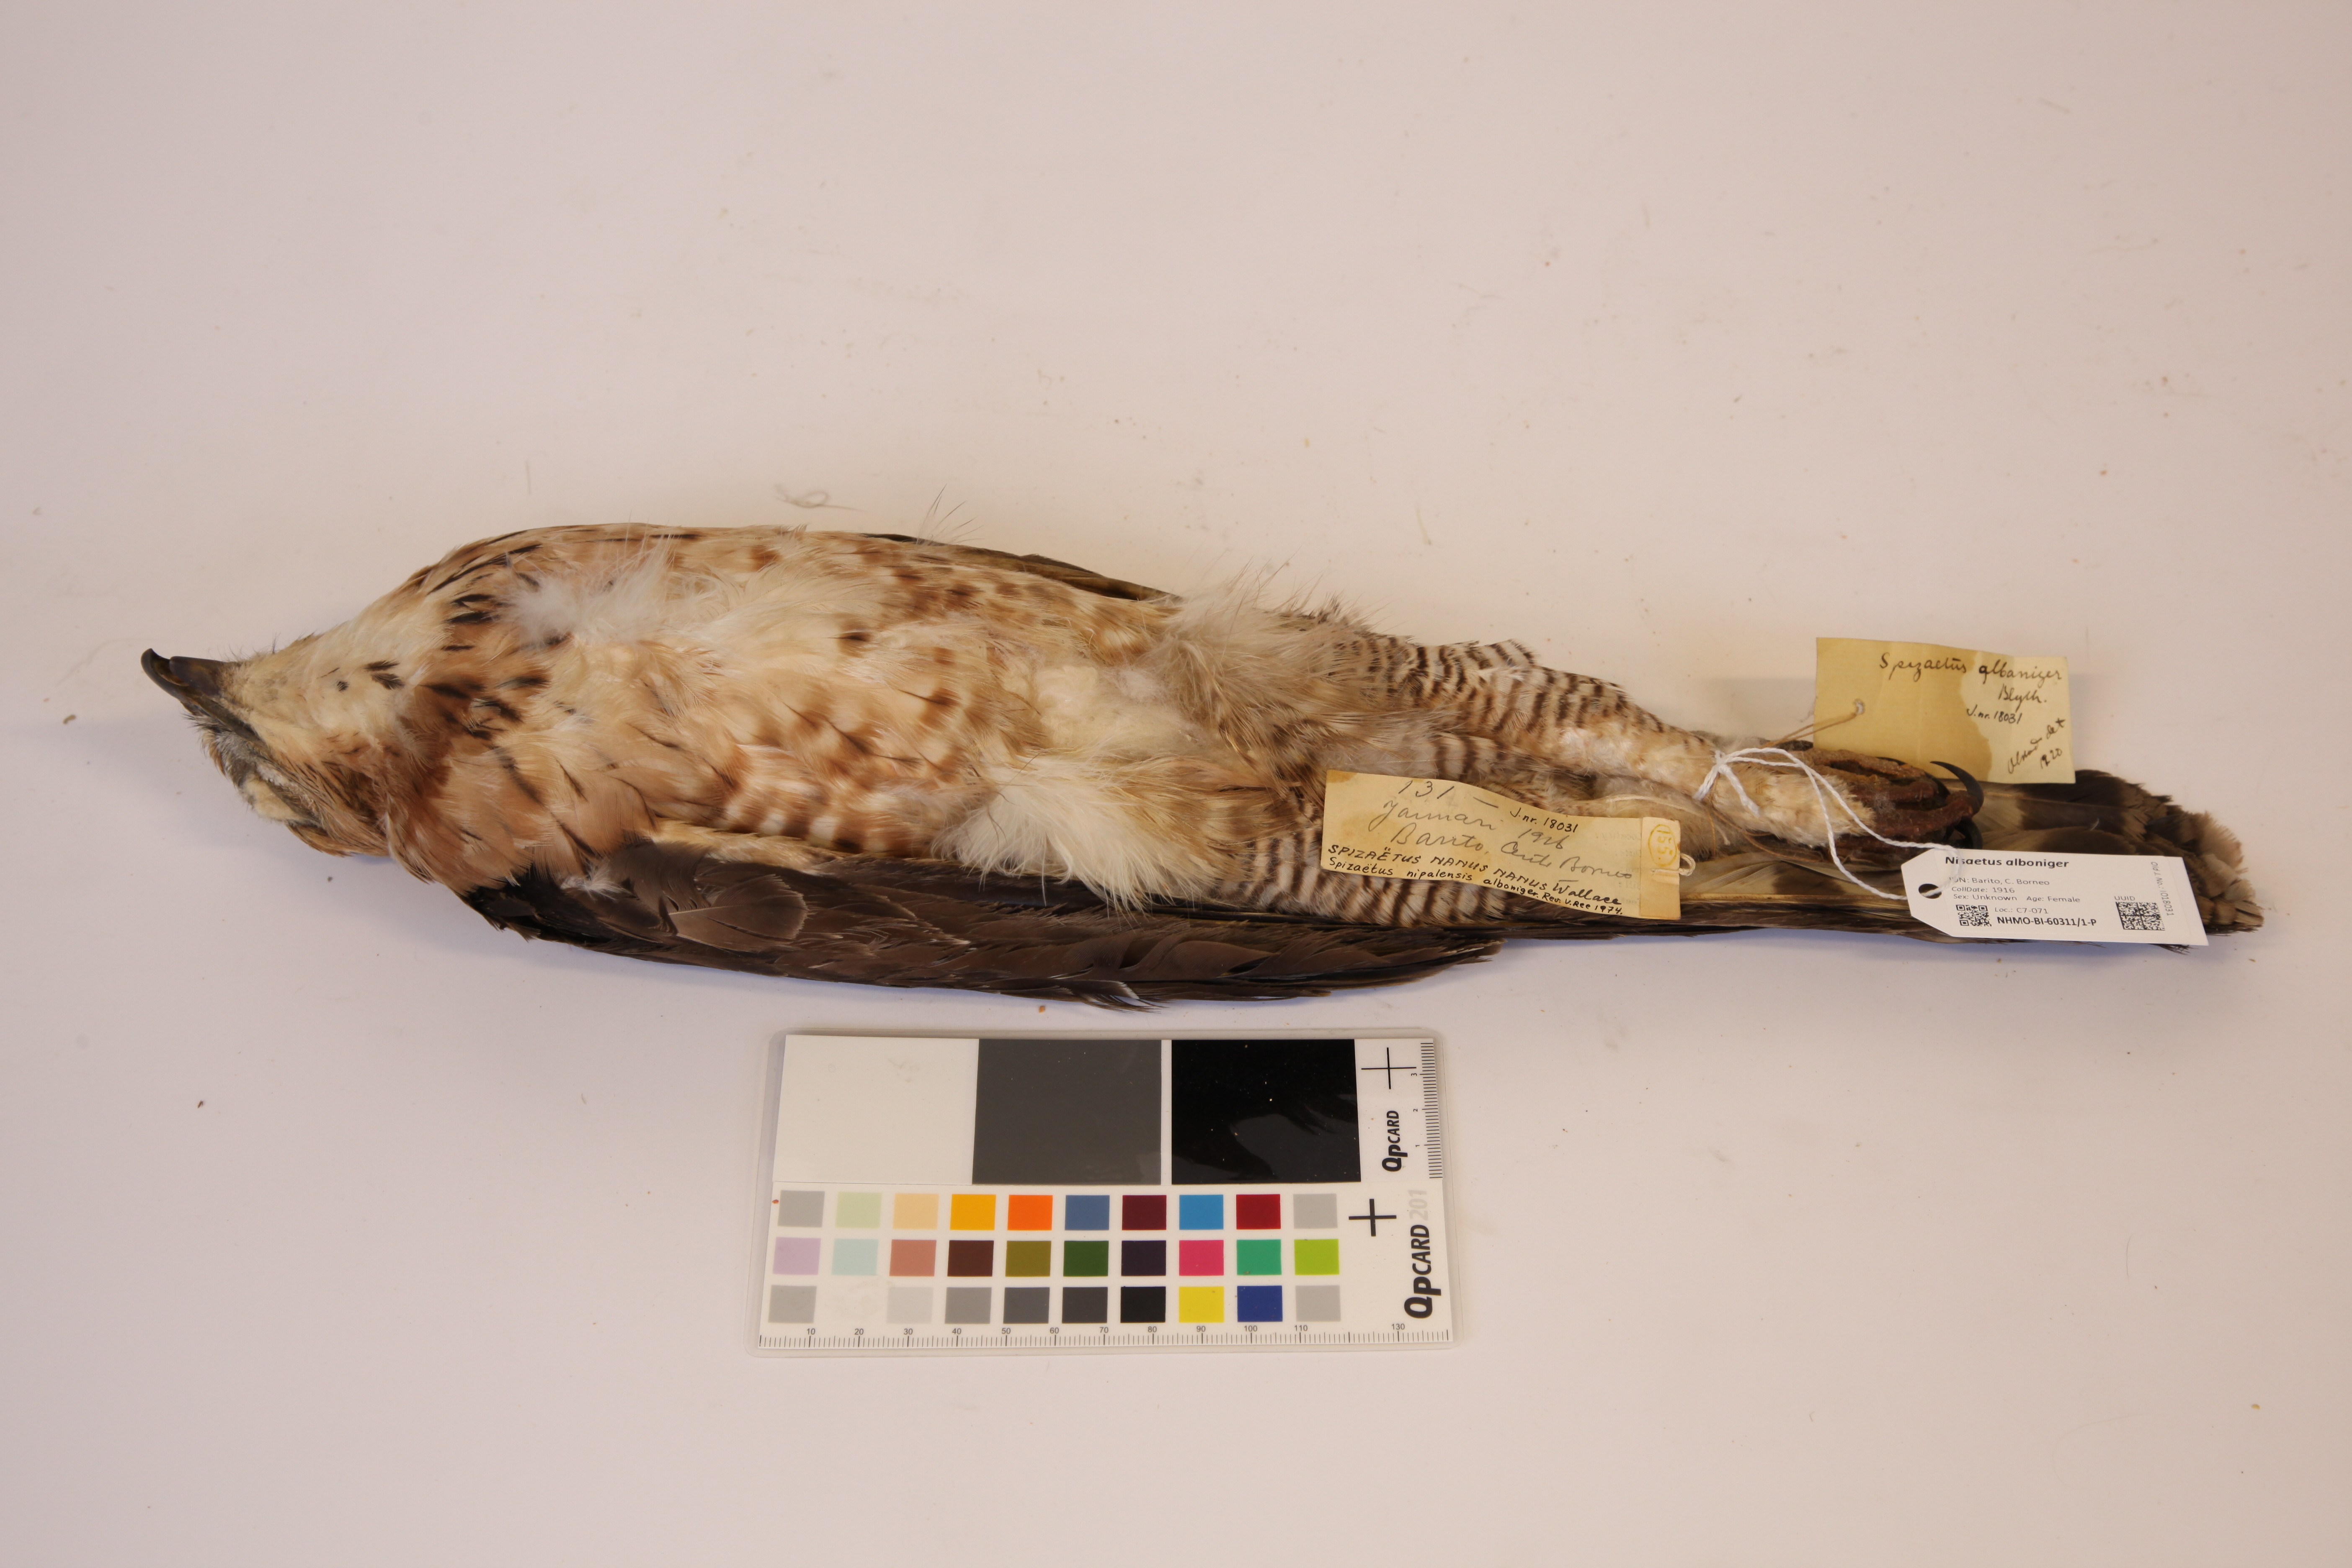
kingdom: Animalia
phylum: Chordata
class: Aves
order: Accipitriformes
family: Accipitridae
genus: Nisaetus
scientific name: Nisaetus alboniger
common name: Blyth's hawk-eagle
